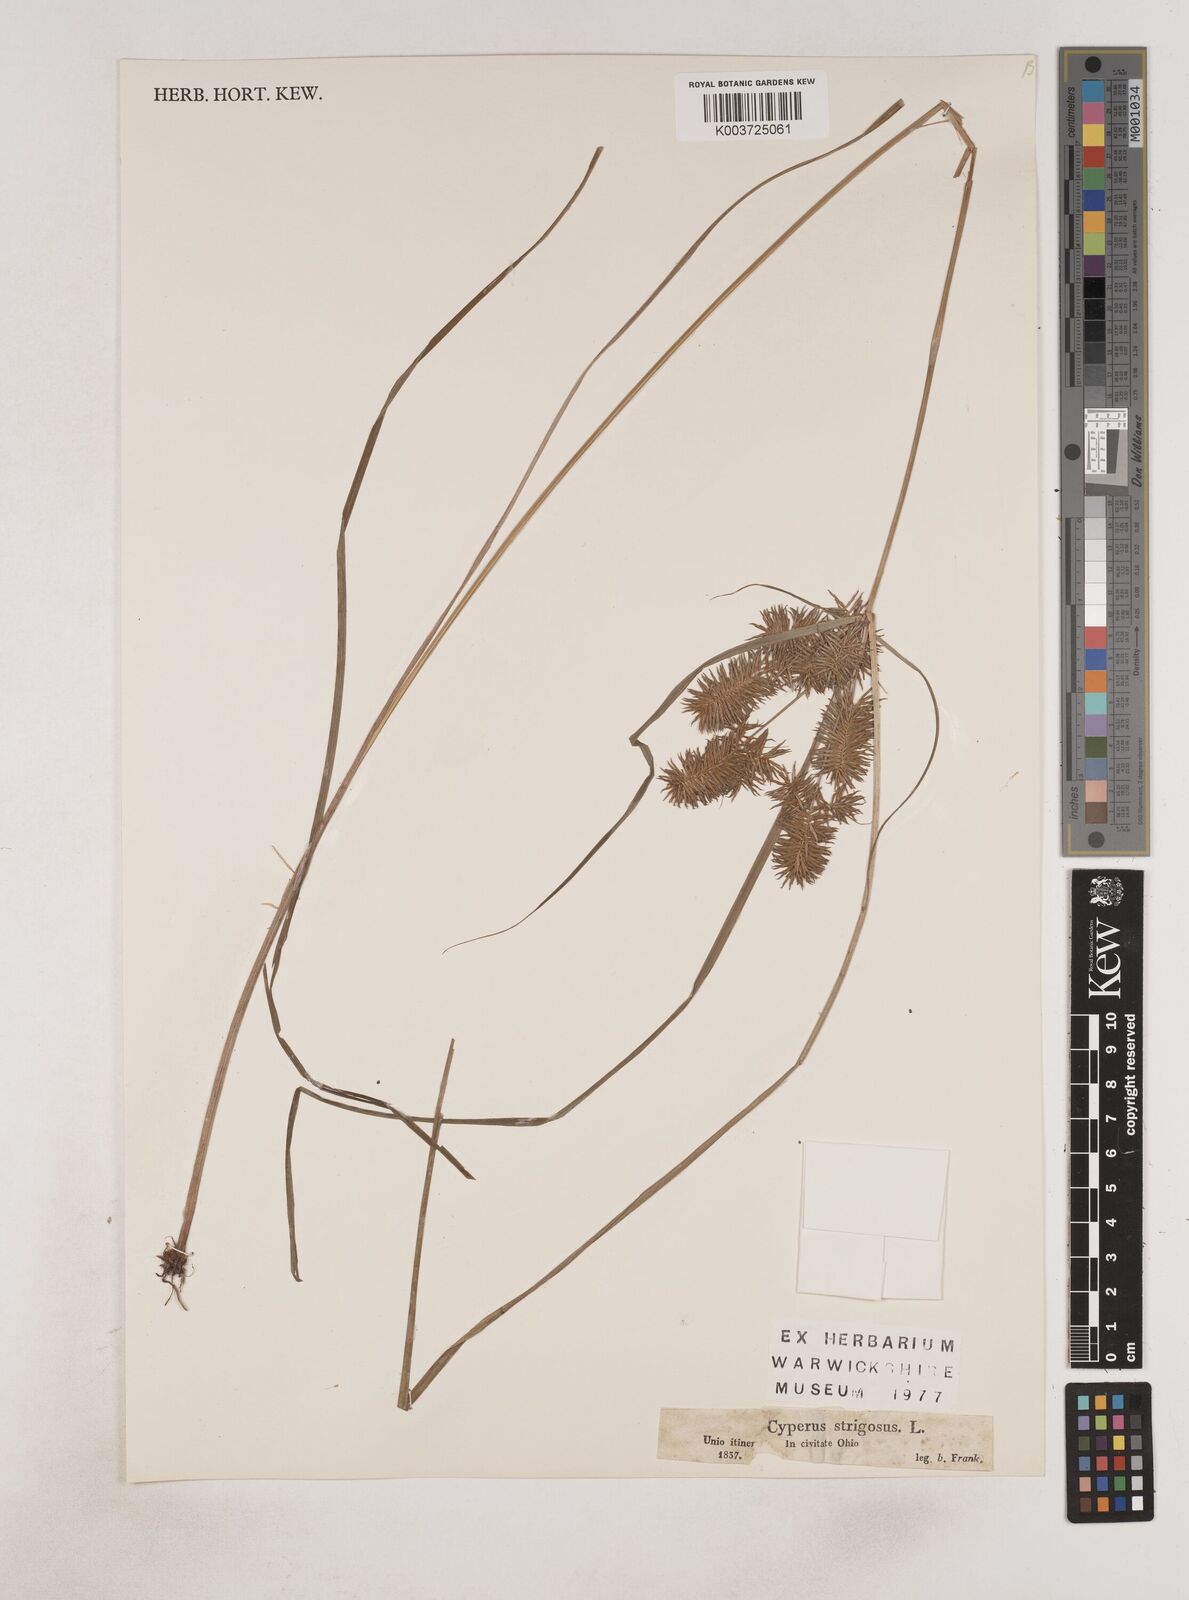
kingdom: Plantae
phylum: Tracheophyta
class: Liliopsida
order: Poales
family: Cyperaceae
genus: Cyperus
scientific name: Cyperus strigosus
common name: False nutsedge
